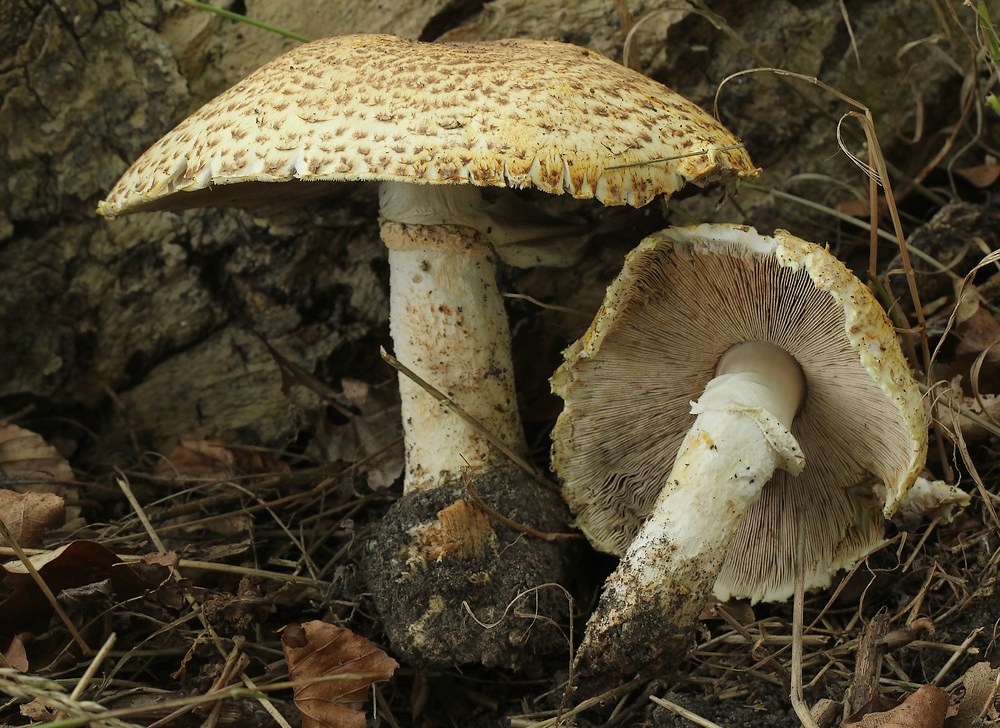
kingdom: Fungi
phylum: Basidiomycota
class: Agaricomycetes
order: Agaricales
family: Agaricaceae
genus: Agaricus
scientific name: Agaricus augustus
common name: prægtig champignon
